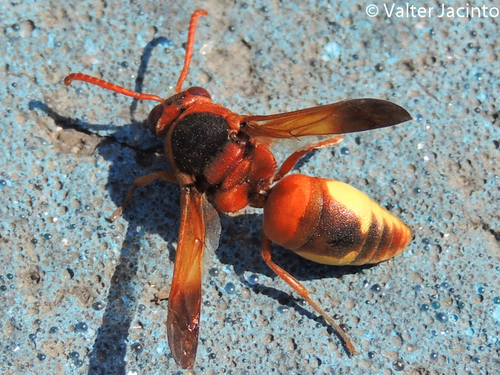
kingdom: Animalia
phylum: Arthropoda
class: Insecta
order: Hymenoptera
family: Eumenidae
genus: Rhynchium
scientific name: Rhynchium oculatum
